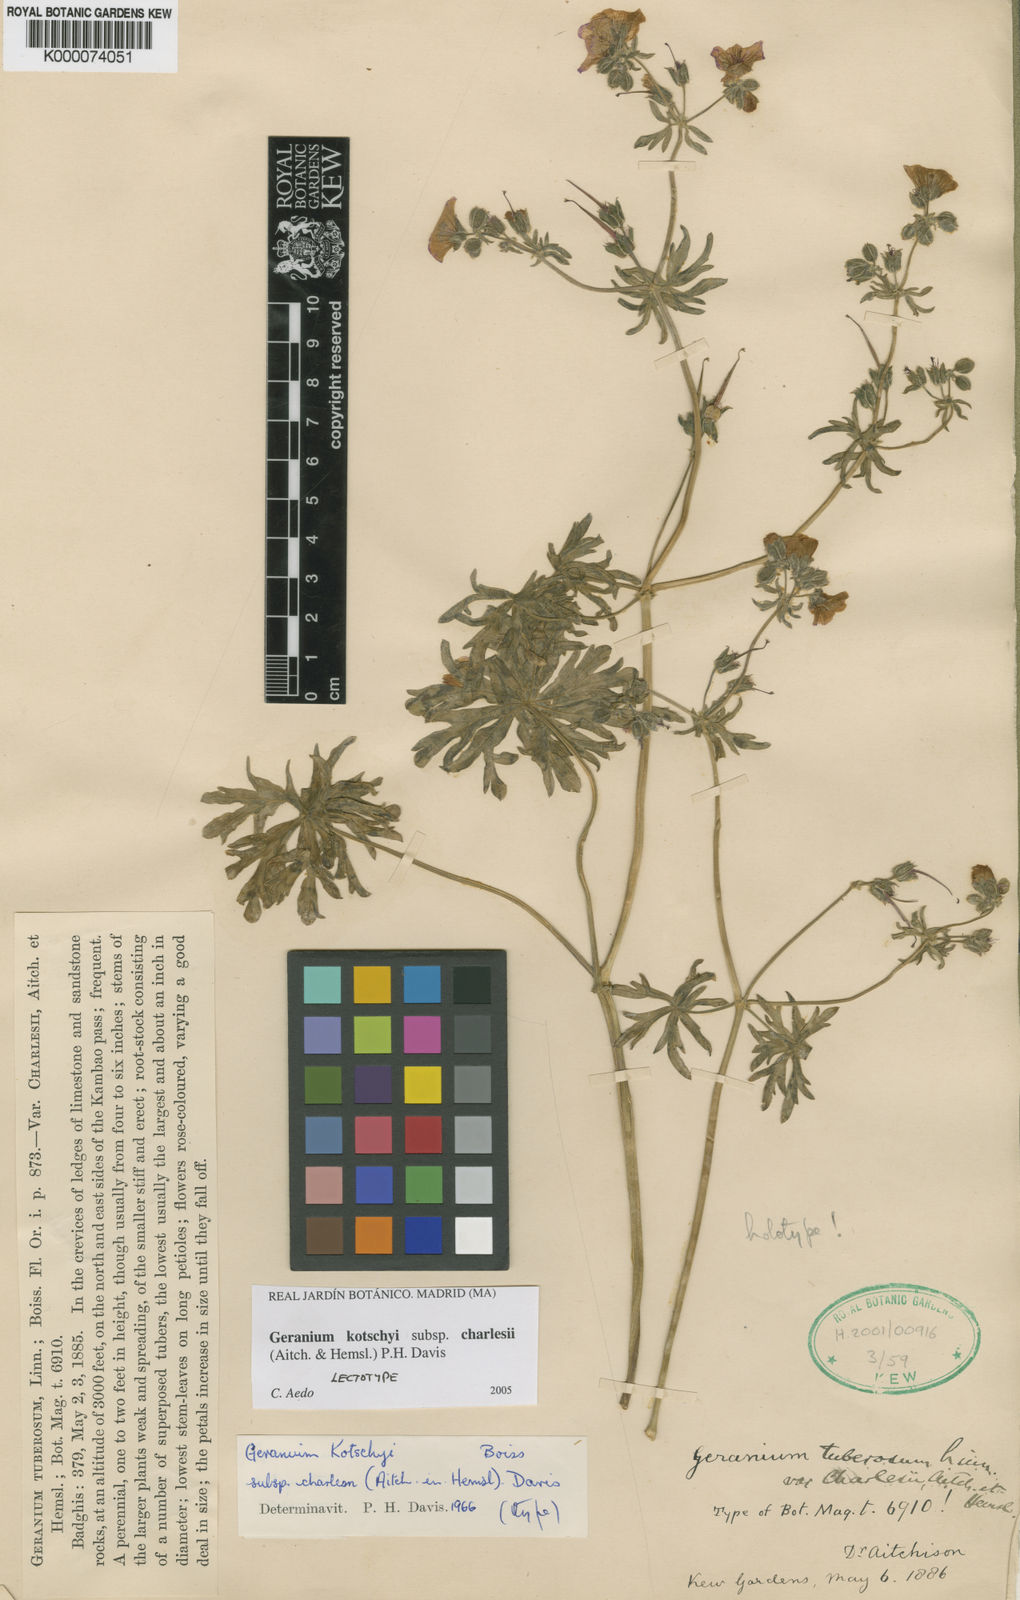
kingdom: Plantae
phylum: Tracheophyta
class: Magnoliopsida
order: Geraniales
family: Geraniaceae
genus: Geranium
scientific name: Geranium
